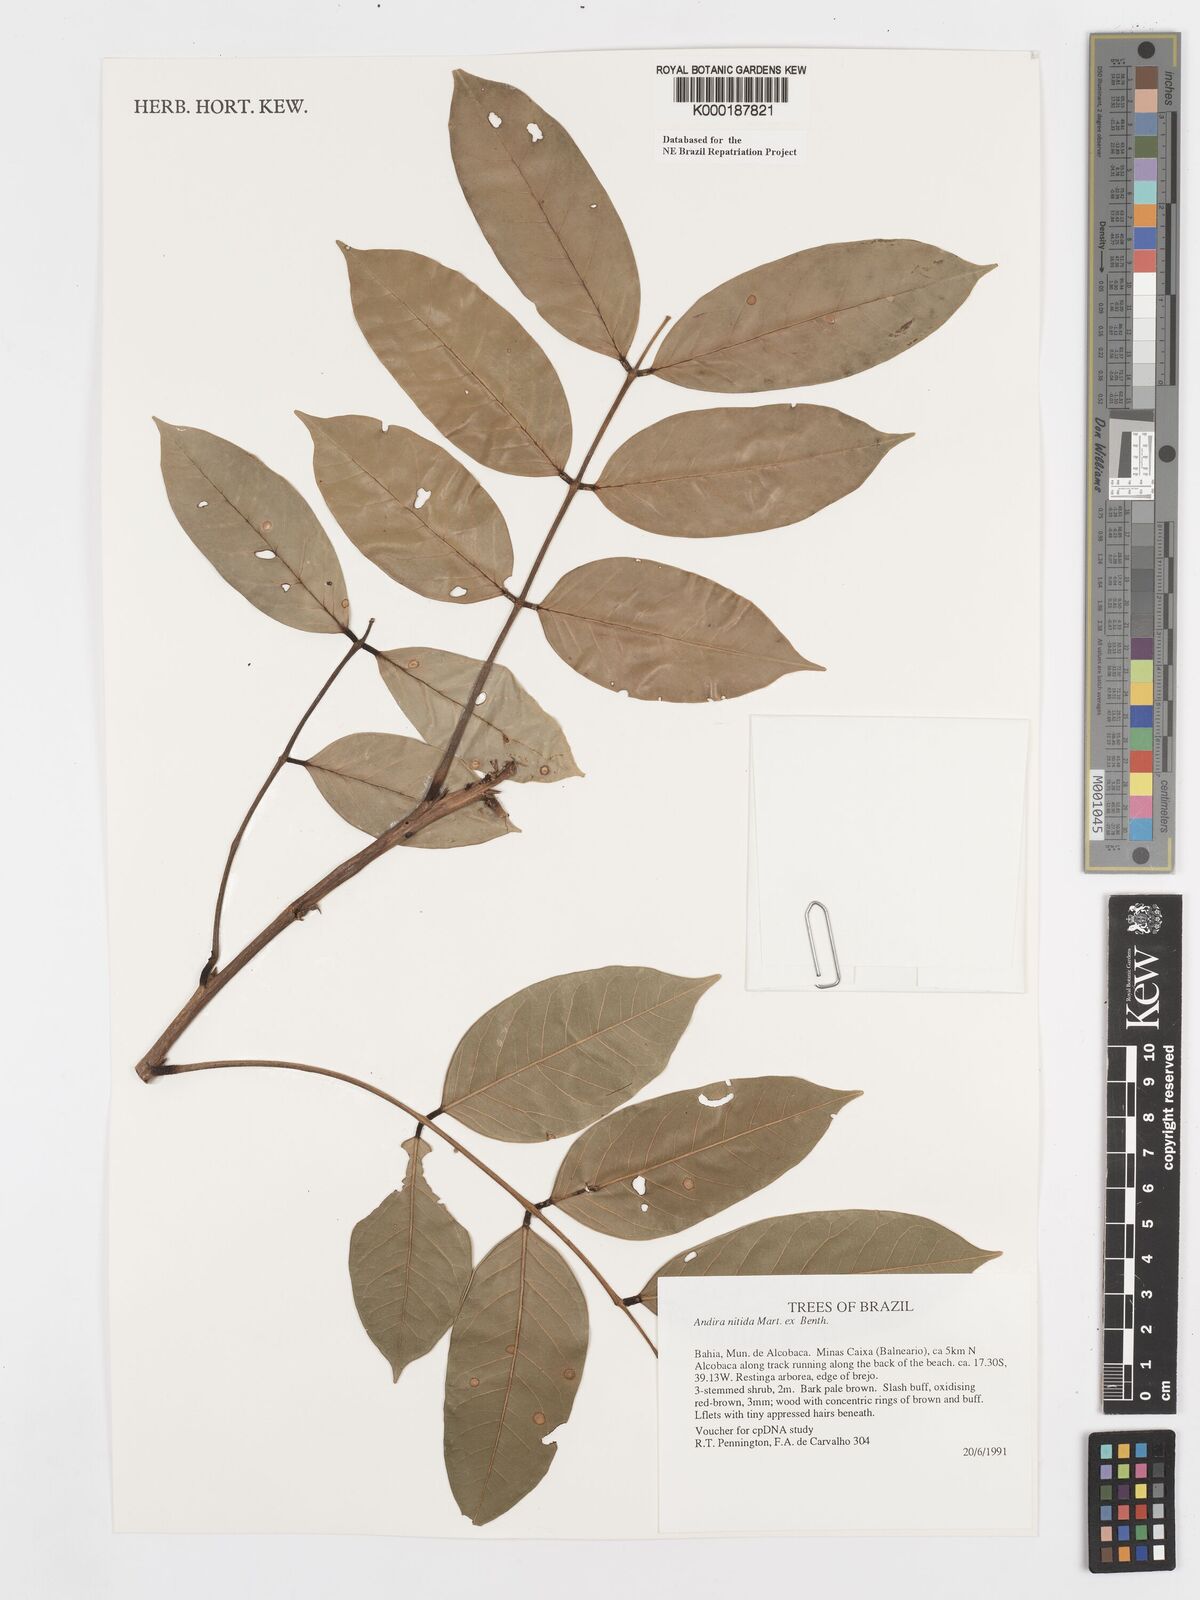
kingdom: Plantae
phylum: Tracheophyta
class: Magnoliopsida
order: Fabales
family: Fabaceae
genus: Andira
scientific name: Andira nitida
